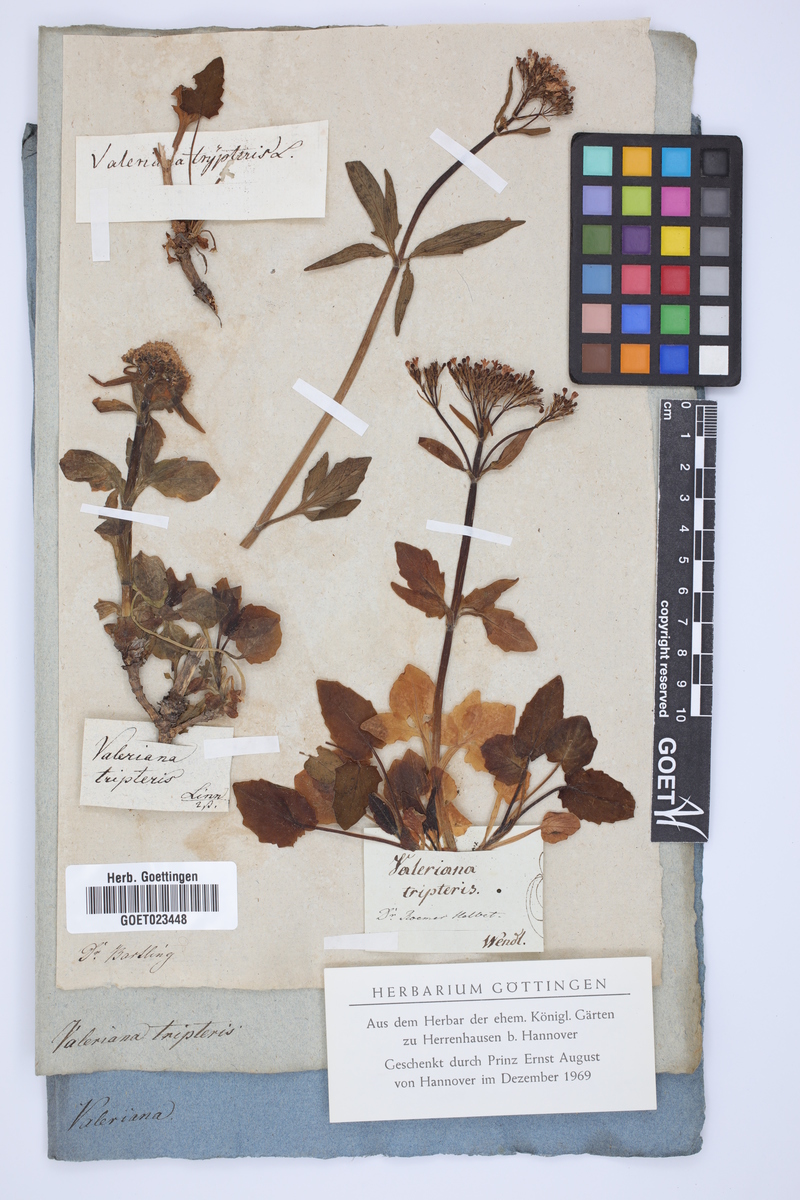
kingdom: Plantae
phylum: Tracheophyta
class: Magnoliopsida
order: Dipsacales
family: Caprifoliaceae
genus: Valeriana
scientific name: Valeriana tripteris
